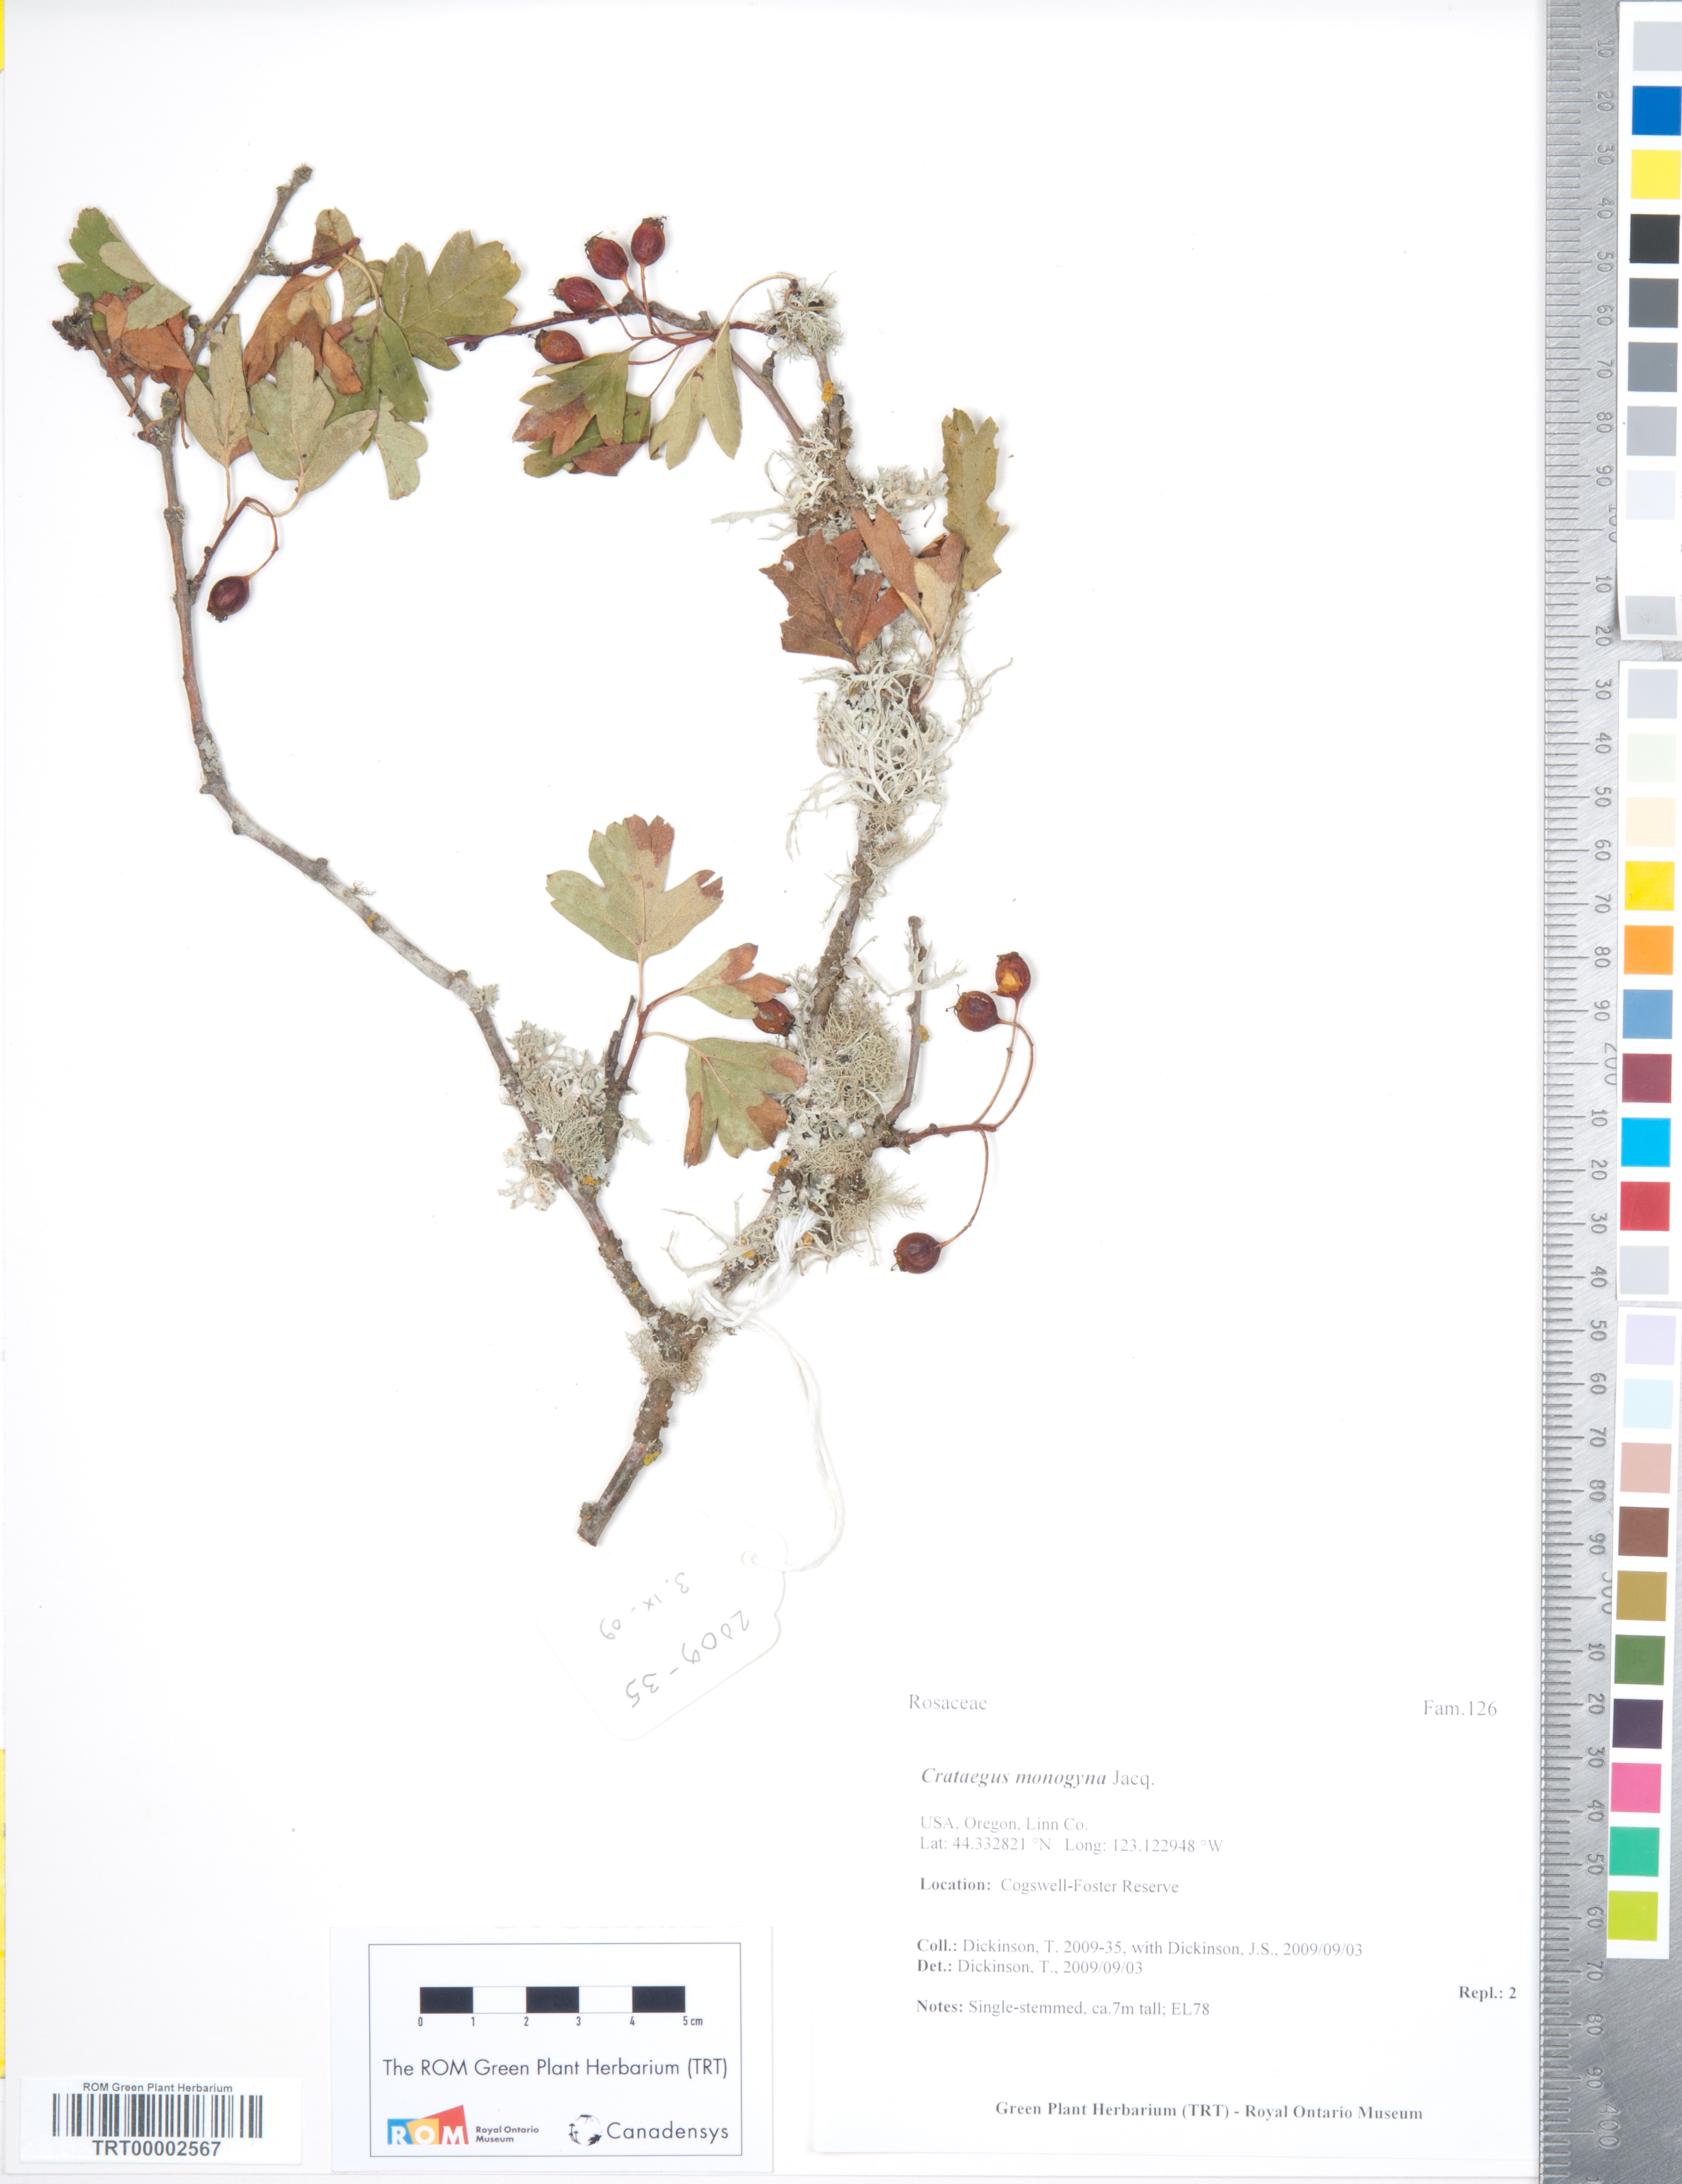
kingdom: Plantae
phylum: Tracheophyta
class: Magnoliopsida
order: Rosales
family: Rosaceae
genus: Crataegus
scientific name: Crataegus monogyna
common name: Hawthorn
